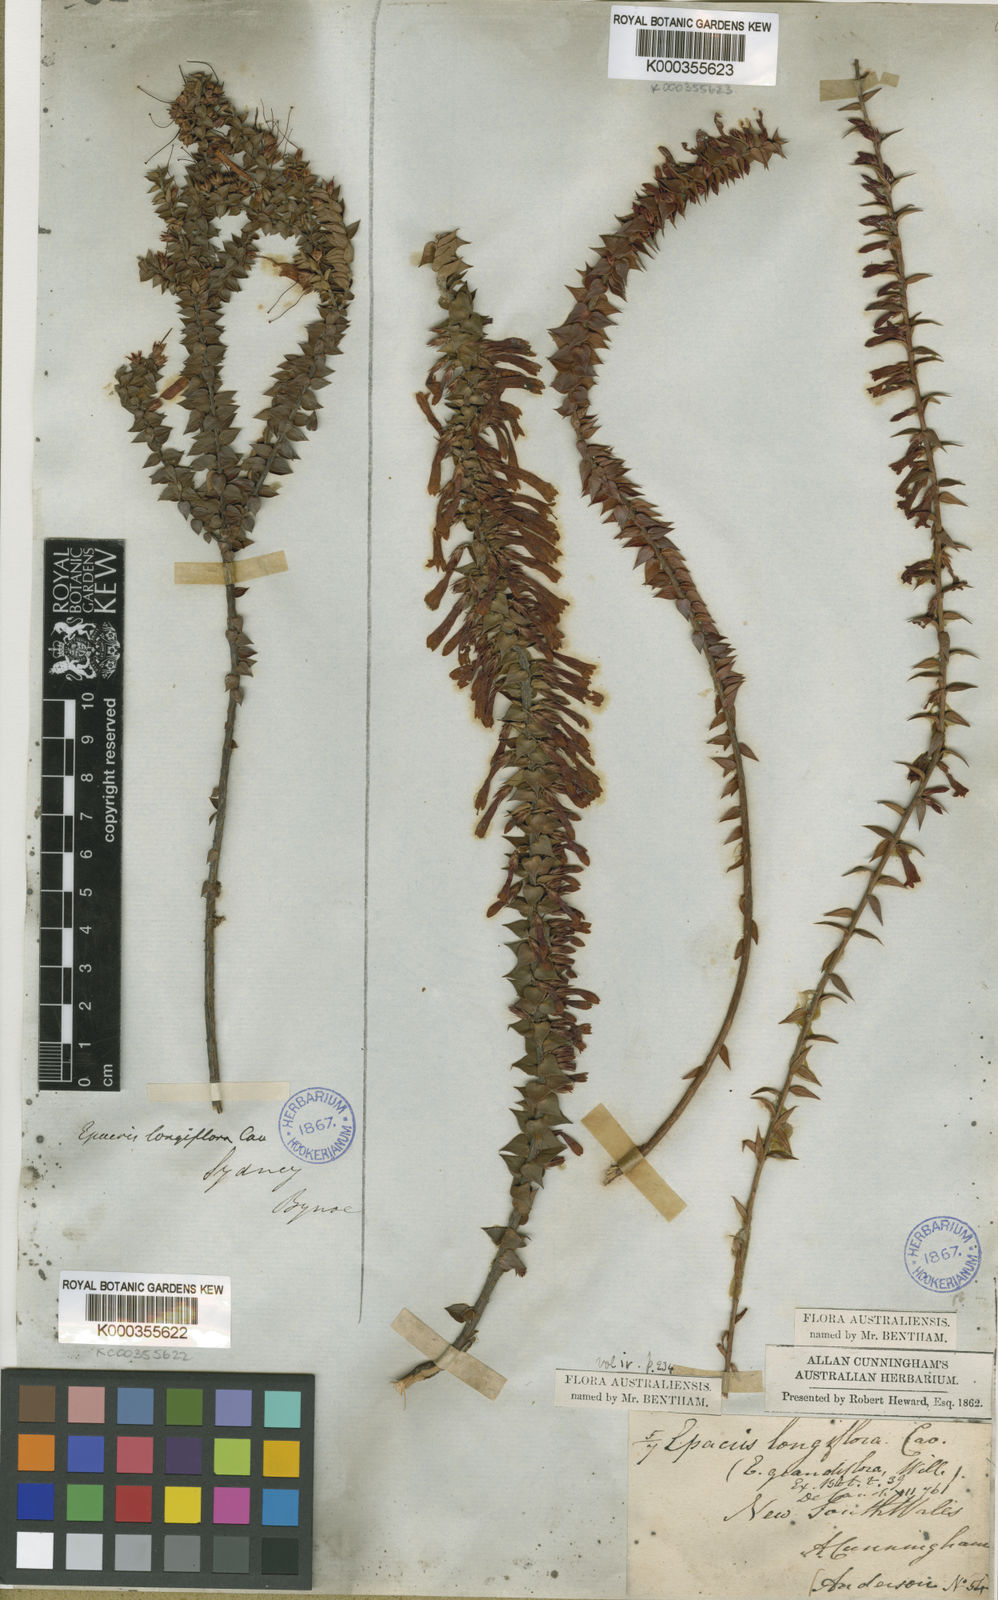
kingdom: Plantae
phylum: Tracheophyta
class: Magnoliopsida
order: Ericales
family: Ericaceae
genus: Epacris
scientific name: Epacris reclinata
